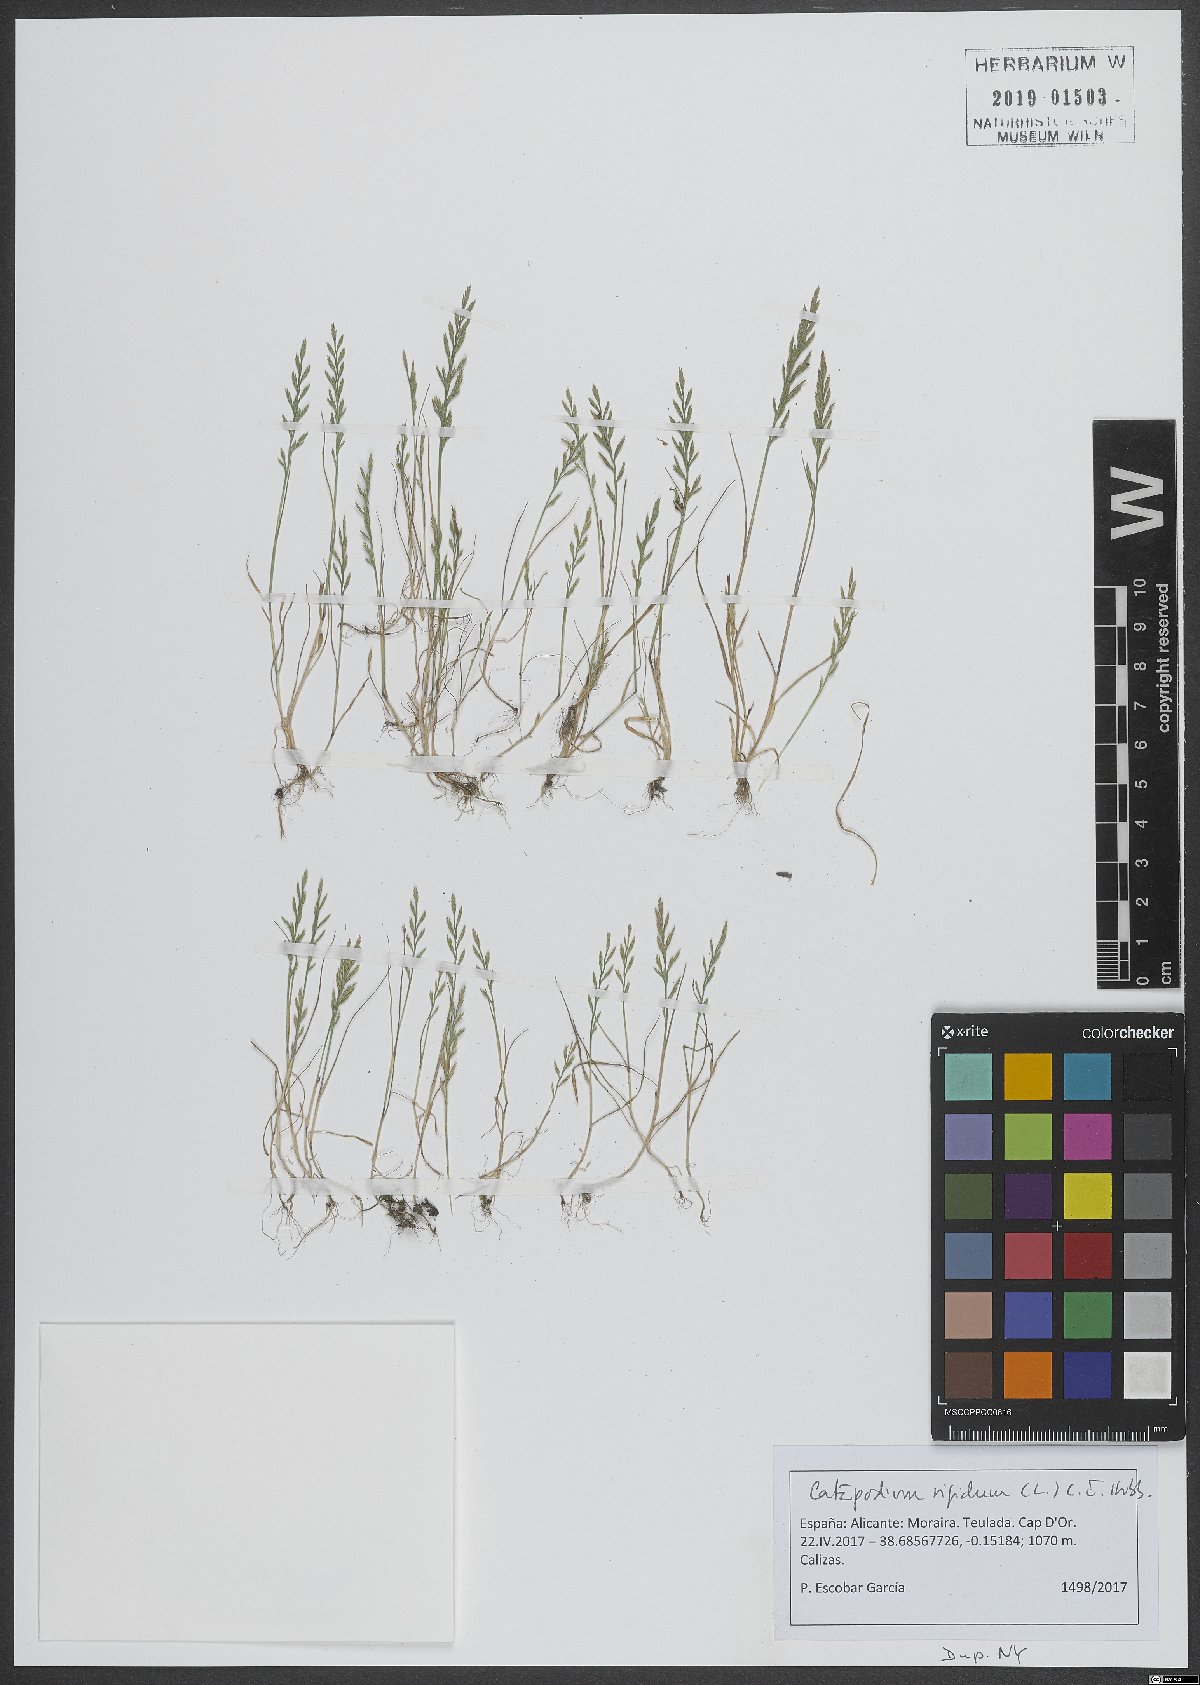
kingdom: Plantae
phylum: Tracheophyta
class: Liliopsida
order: Poales
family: Poaceae
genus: Catapodium
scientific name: Catapodium rigidum
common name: Fern-grass
